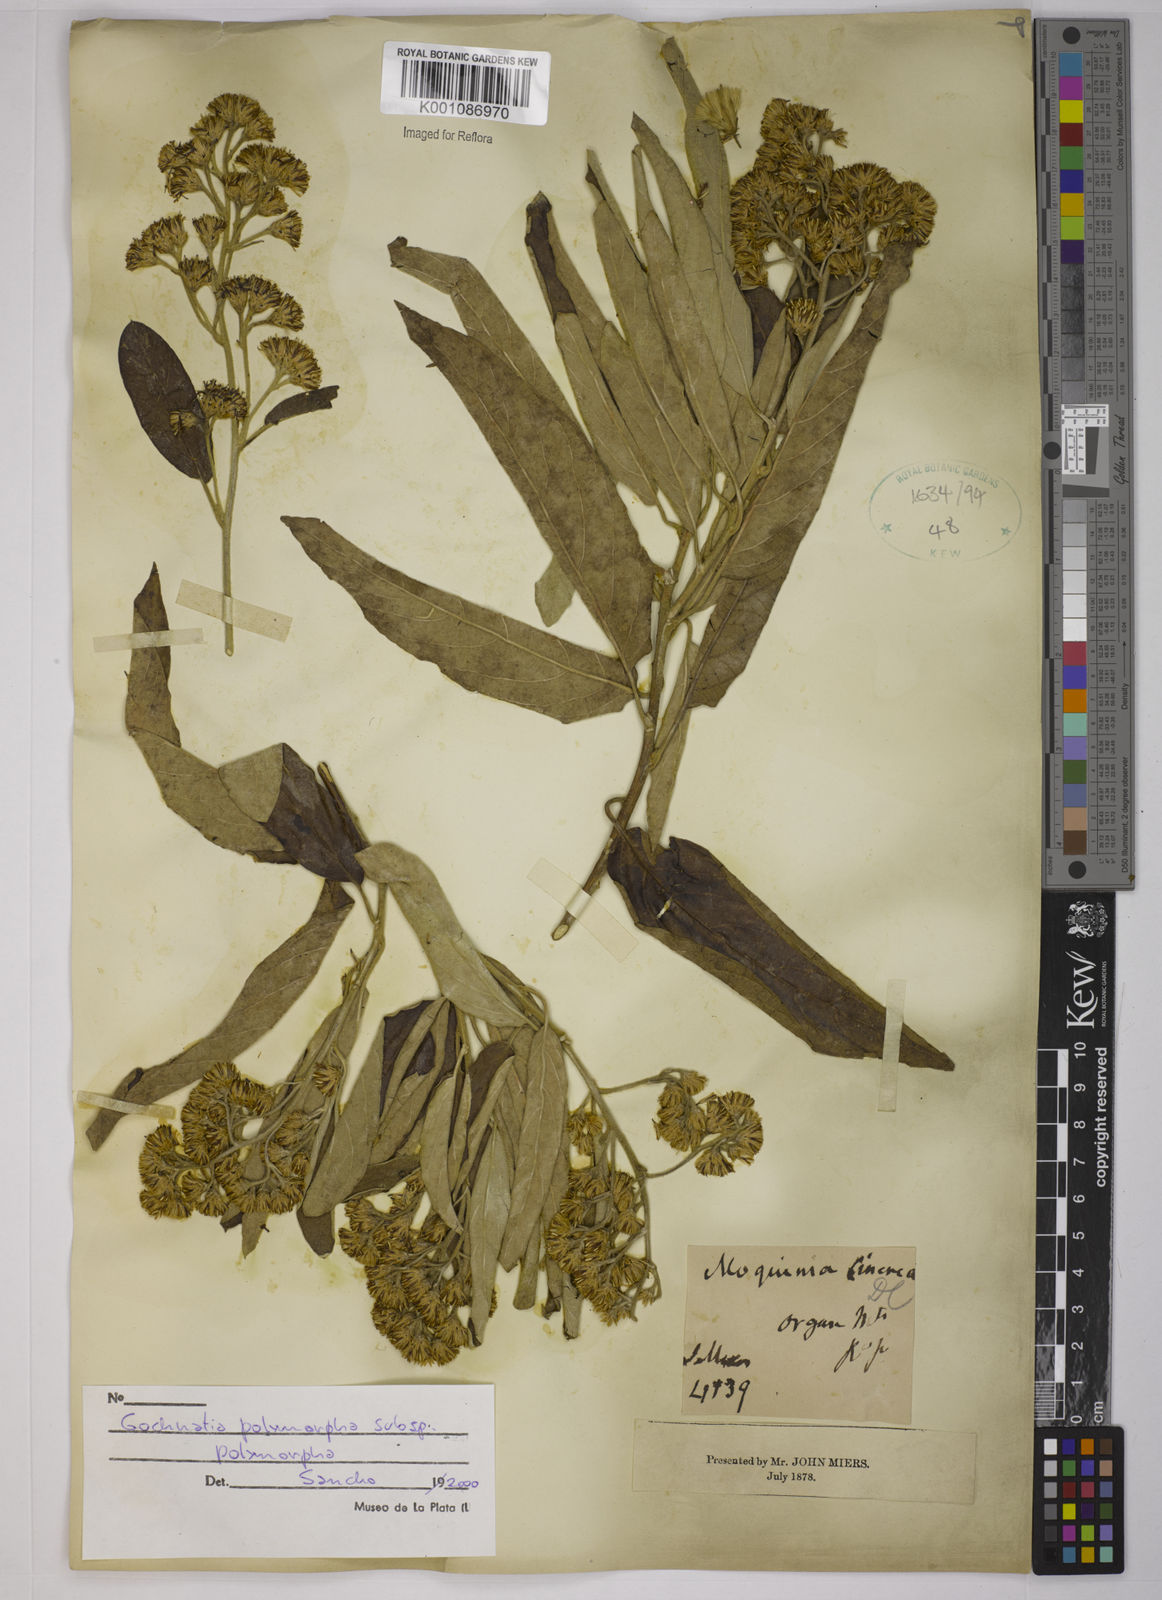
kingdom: Plantae
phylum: Tracheophyta
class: Magnoliopsida
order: Asterales
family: Asteraceae
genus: Moquiniastrum
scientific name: Moquiniastrum polymorphum
